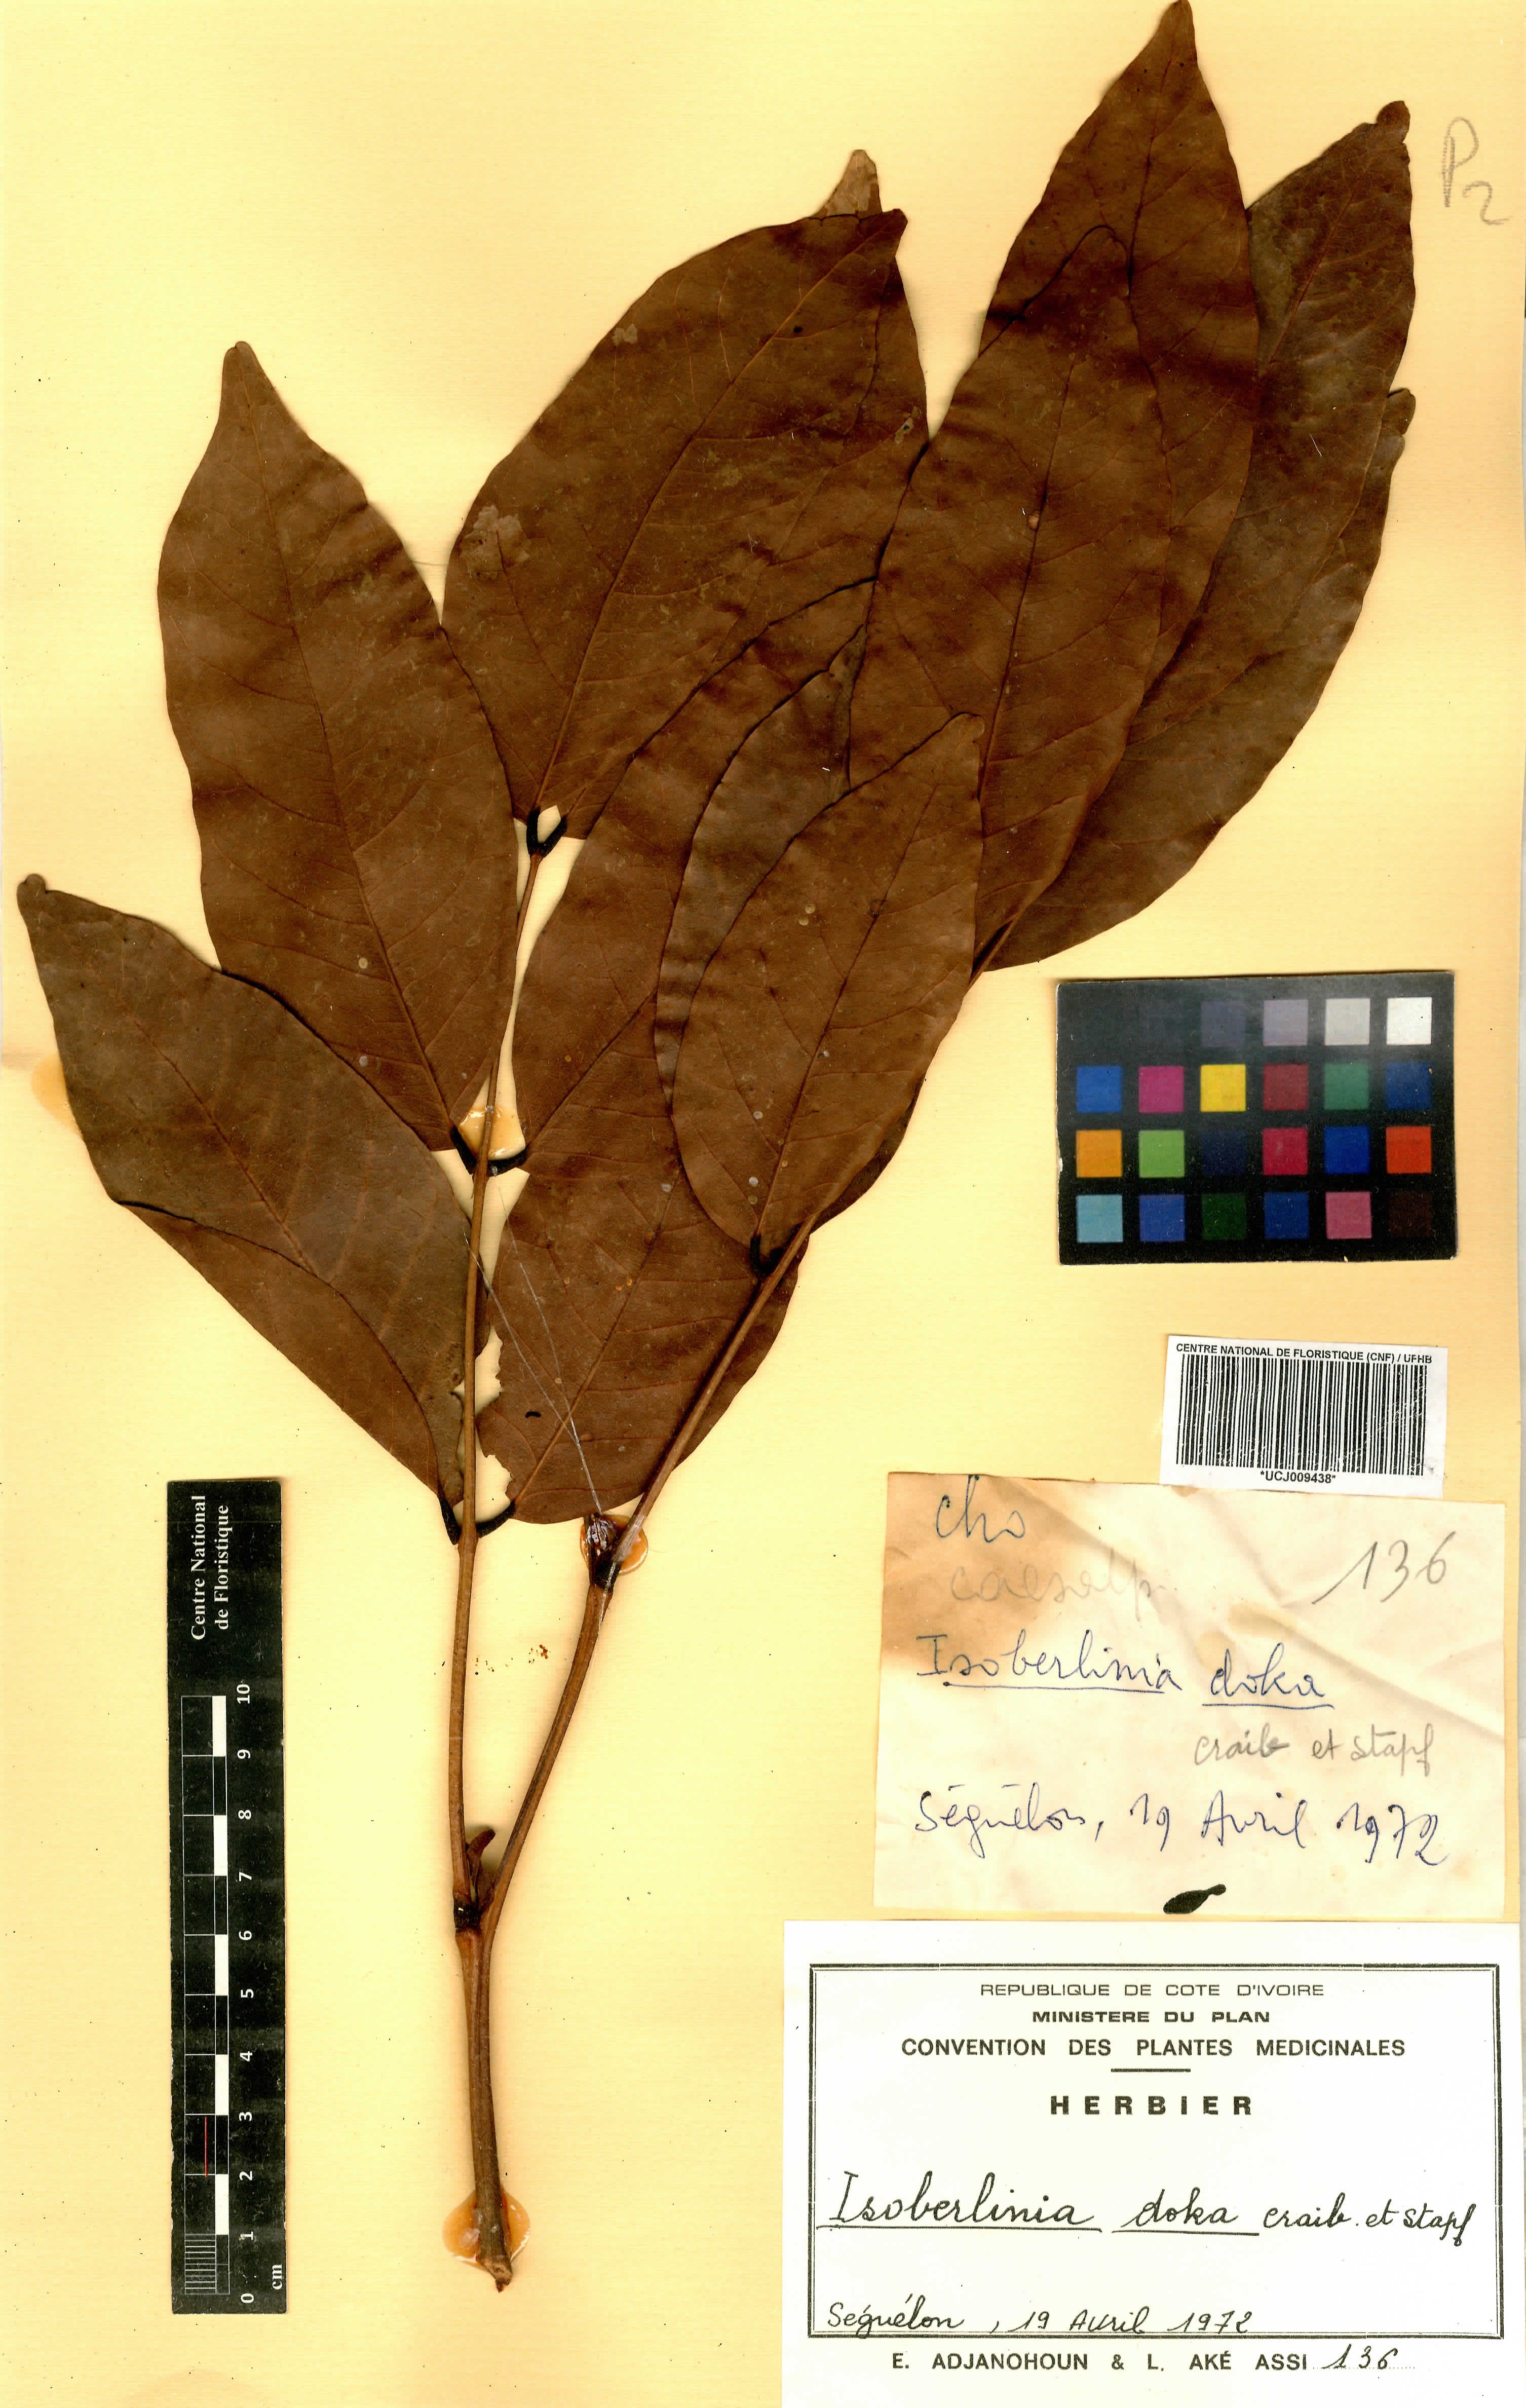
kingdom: Plantae
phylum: Tracheophyta
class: Magnoliopsida
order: Fabales
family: Fabaceae
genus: Isoberlinia
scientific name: Isoberlinia doka
